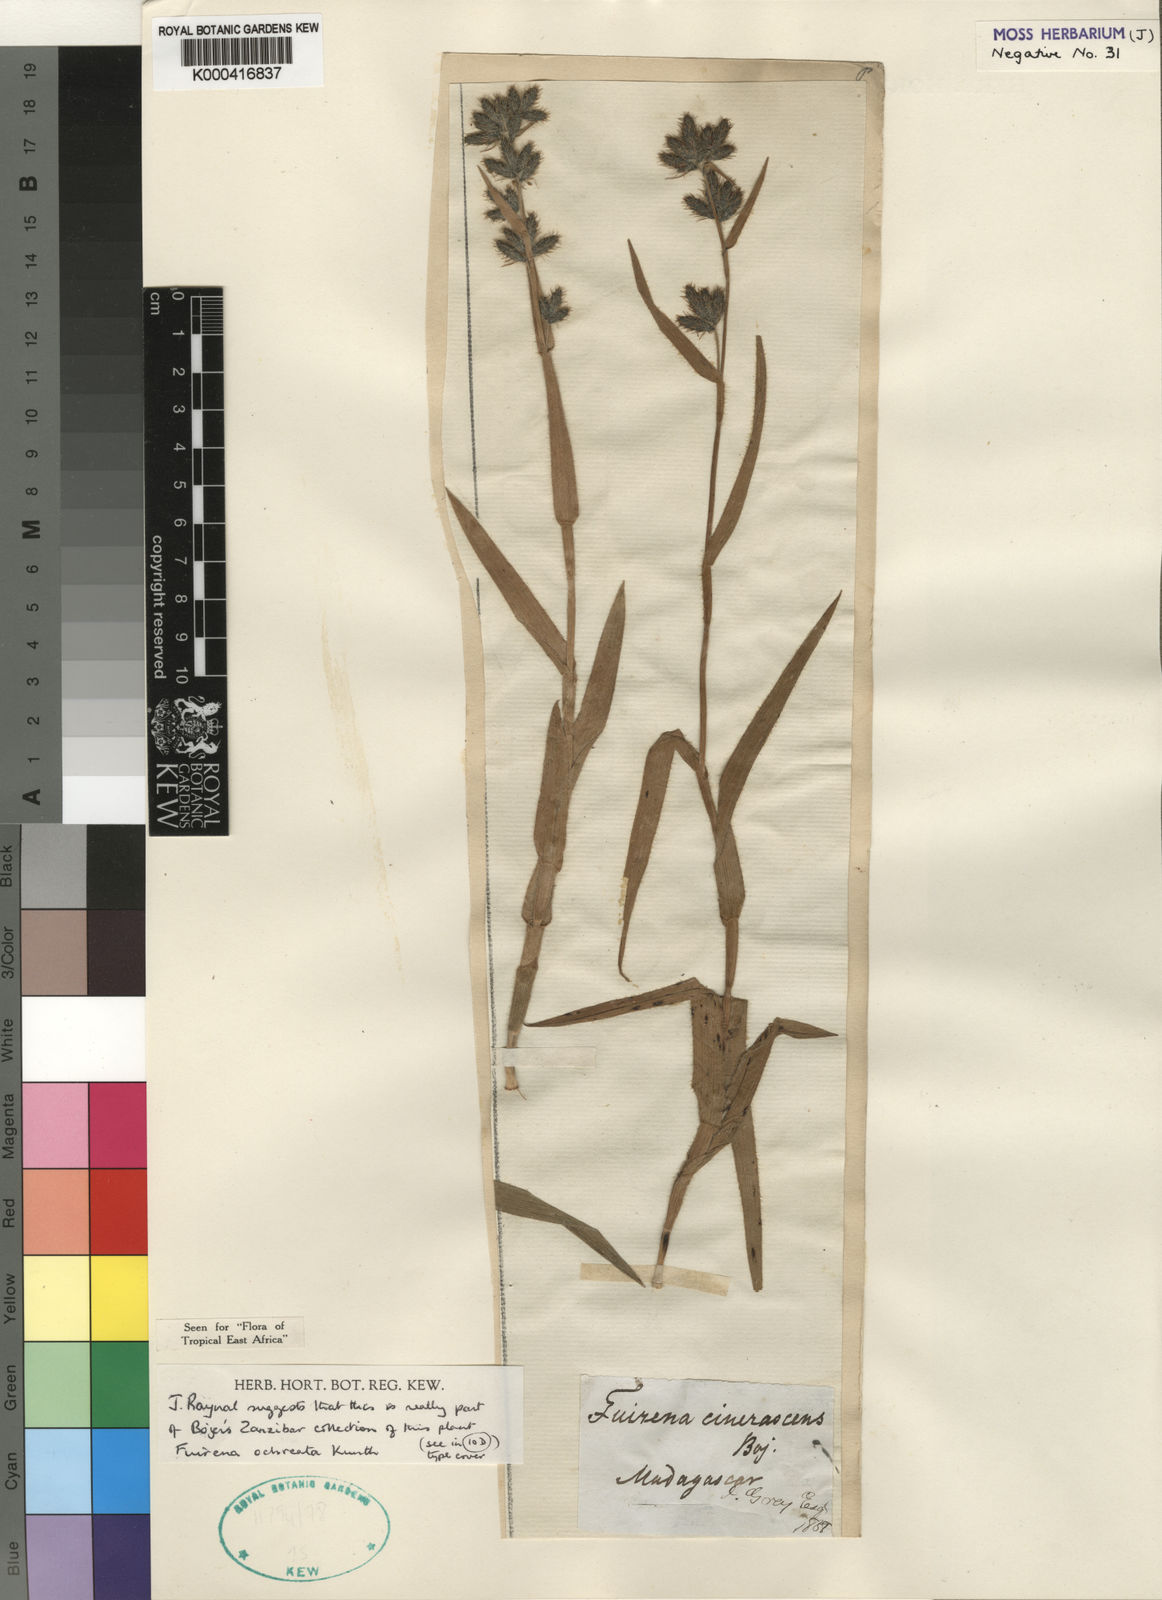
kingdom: Plantae
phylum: Tracheophyta
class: Liliopsida
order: Poales
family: Cyperaceae
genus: Fuirena
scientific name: Fuirena ochreata
